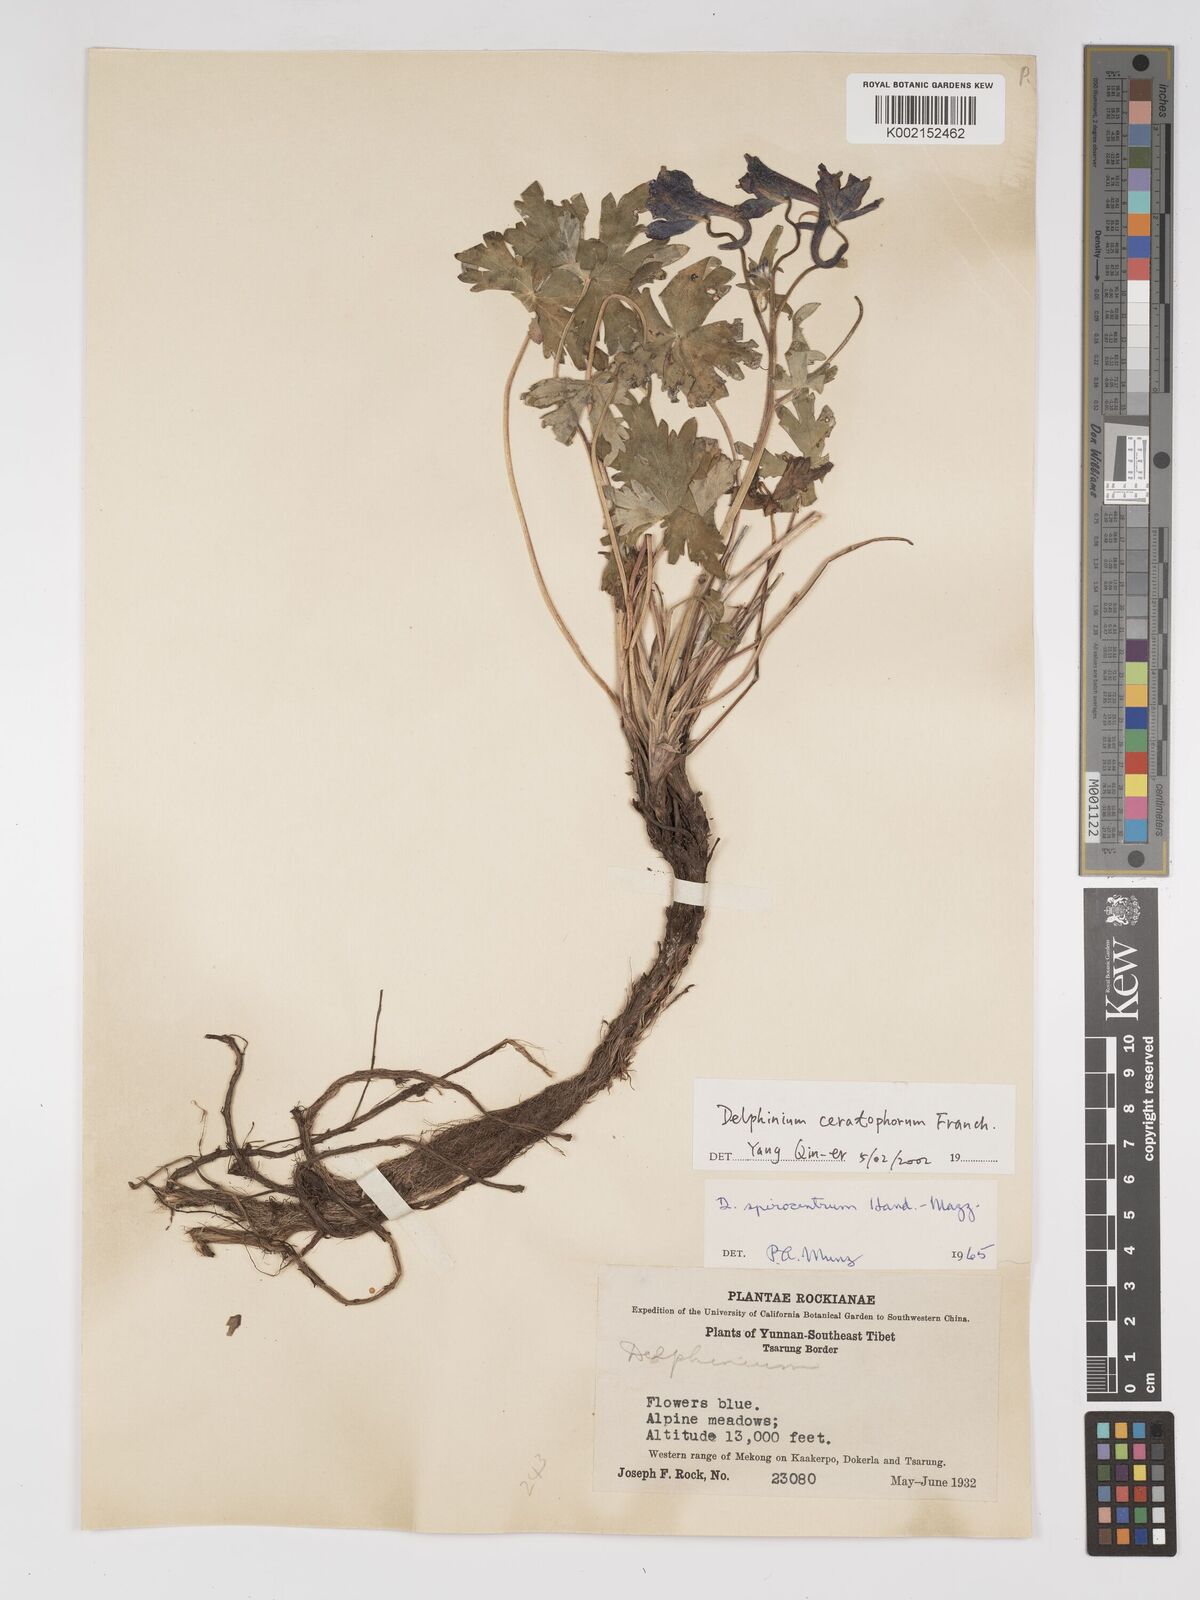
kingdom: Plantae
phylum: Tracheophyta
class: Magnoliopsida
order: Ranunculales
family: Ranunculaceae
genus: Delphinium
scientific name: Delphinium ceratophorum
